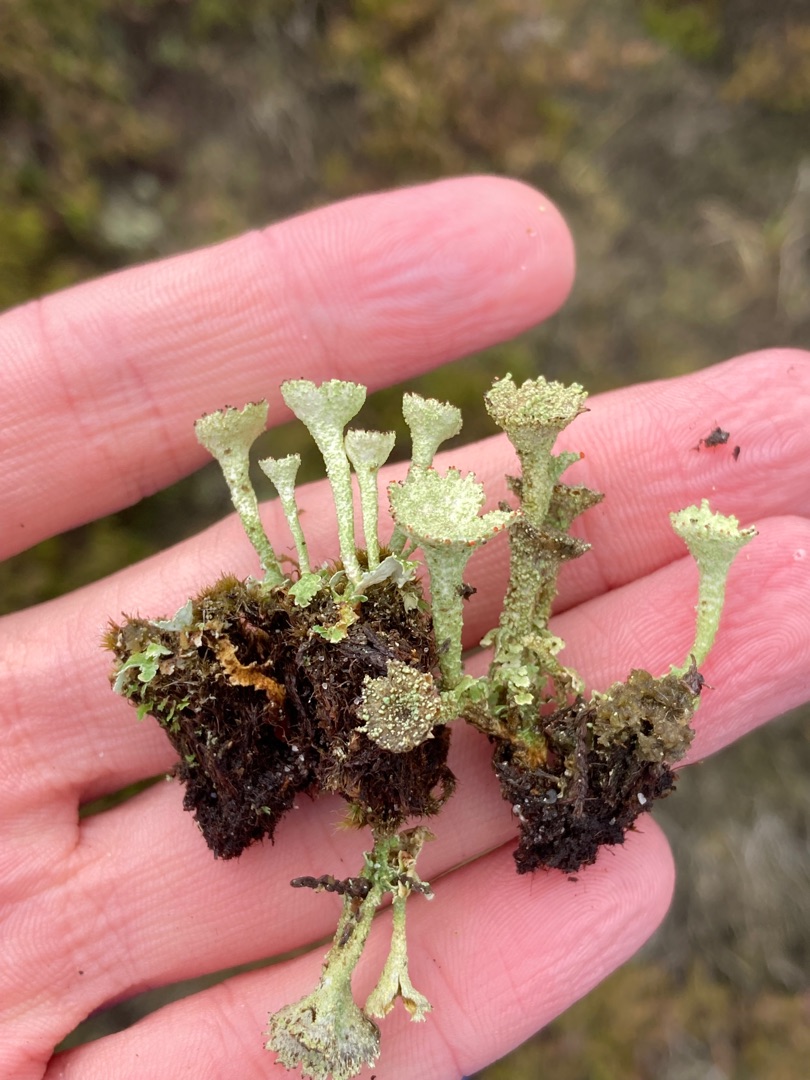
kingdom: Fungi
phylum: Ascomycota
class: Lecanoromycetes
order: Lecanorales
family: Cladoniaceae
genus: Cladonia
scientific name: Cladonia borealis
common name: Nordlig bægerlav
